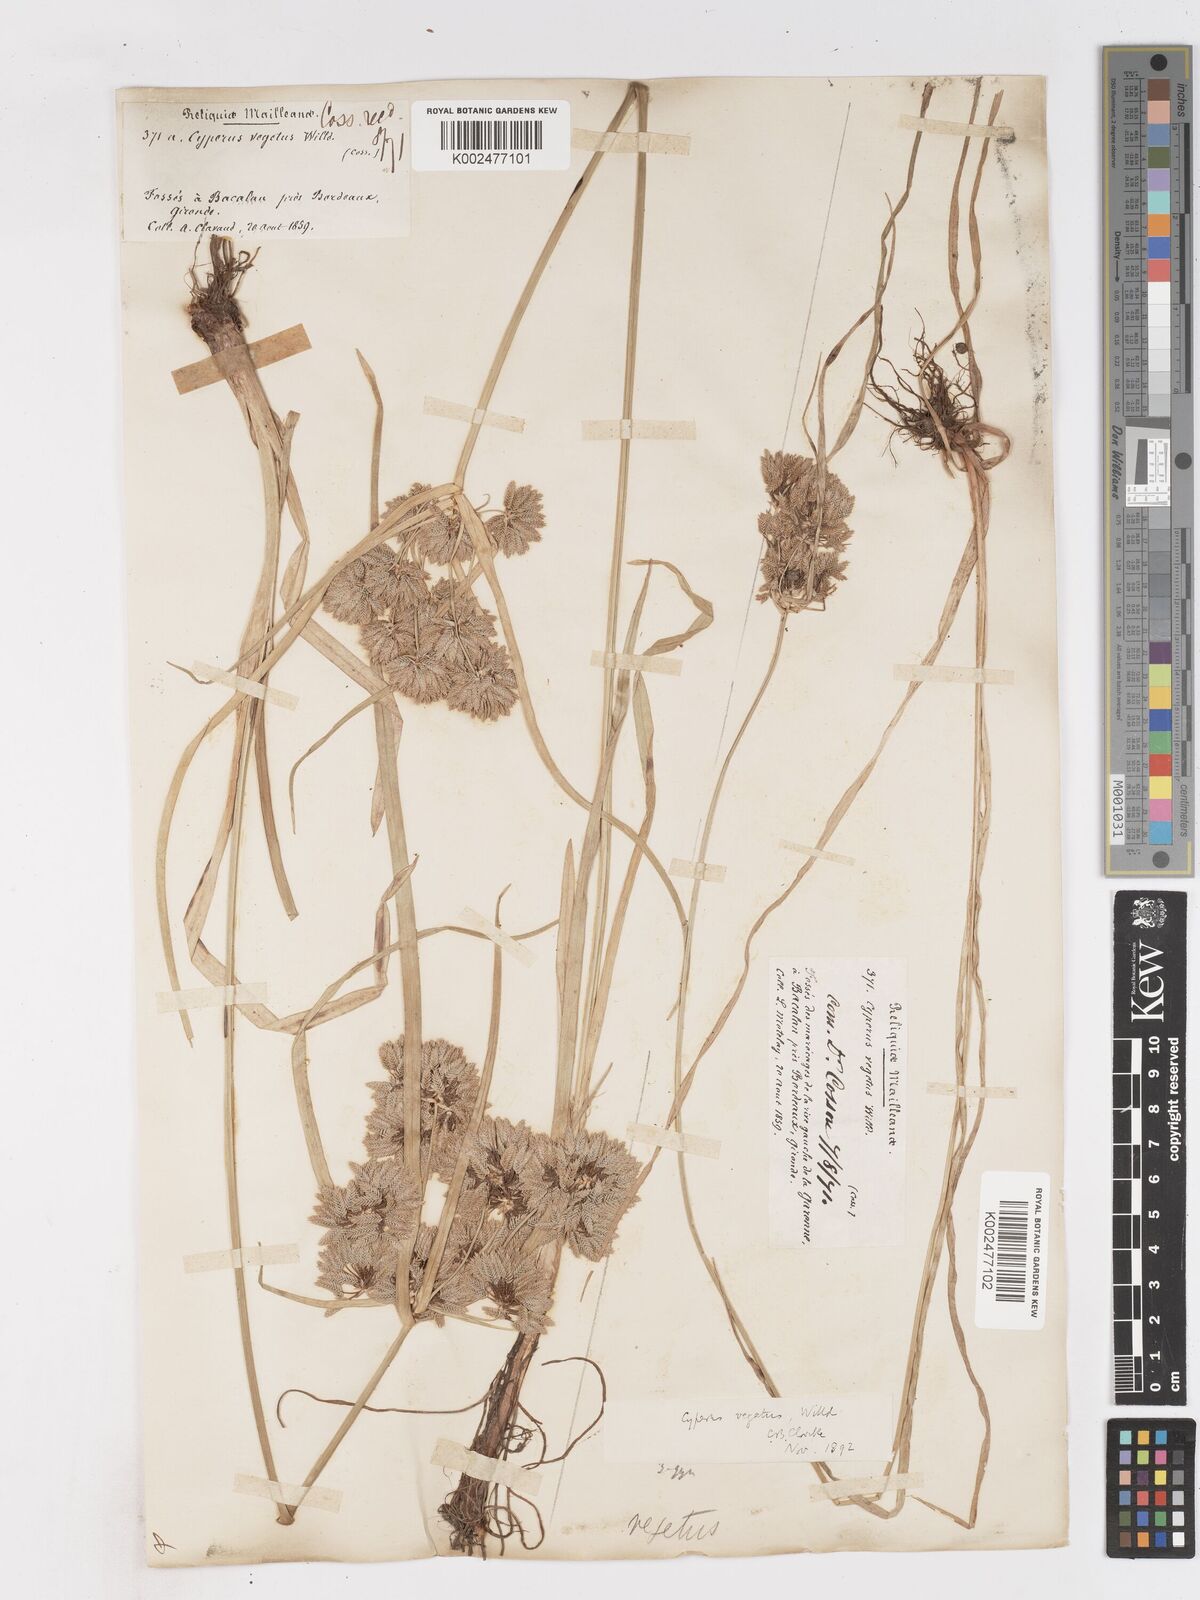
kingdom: Plantae
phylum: Tracheophyta
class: Liliopsida
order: Poales
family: Cyperaceae
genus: Cyperus
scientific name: Cyperus eragrostis
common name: Tall flatsedge
